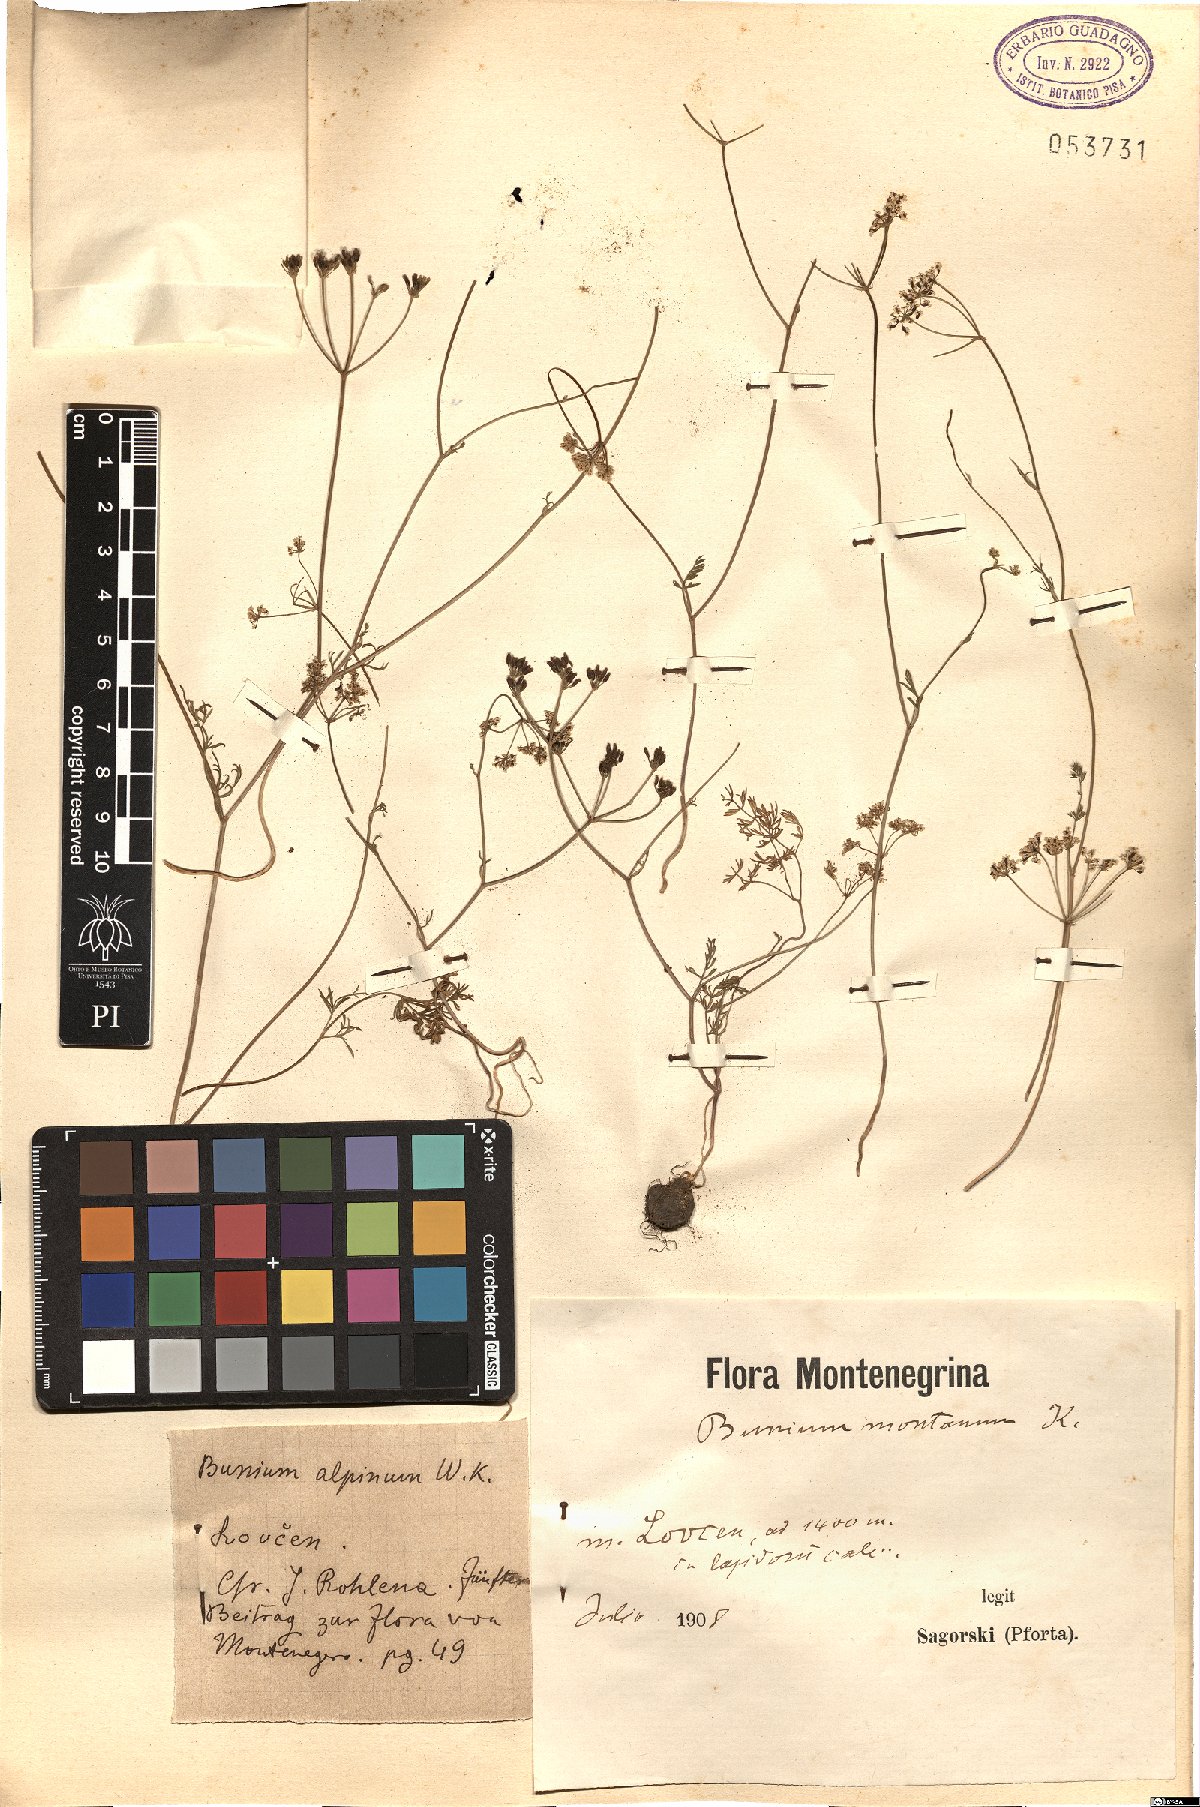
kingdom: Plantae
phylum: Tracheophyta
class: Magnoliopsida
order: Apiales
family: Apiaceae
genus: Bunium
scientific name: Bunium alpinum
